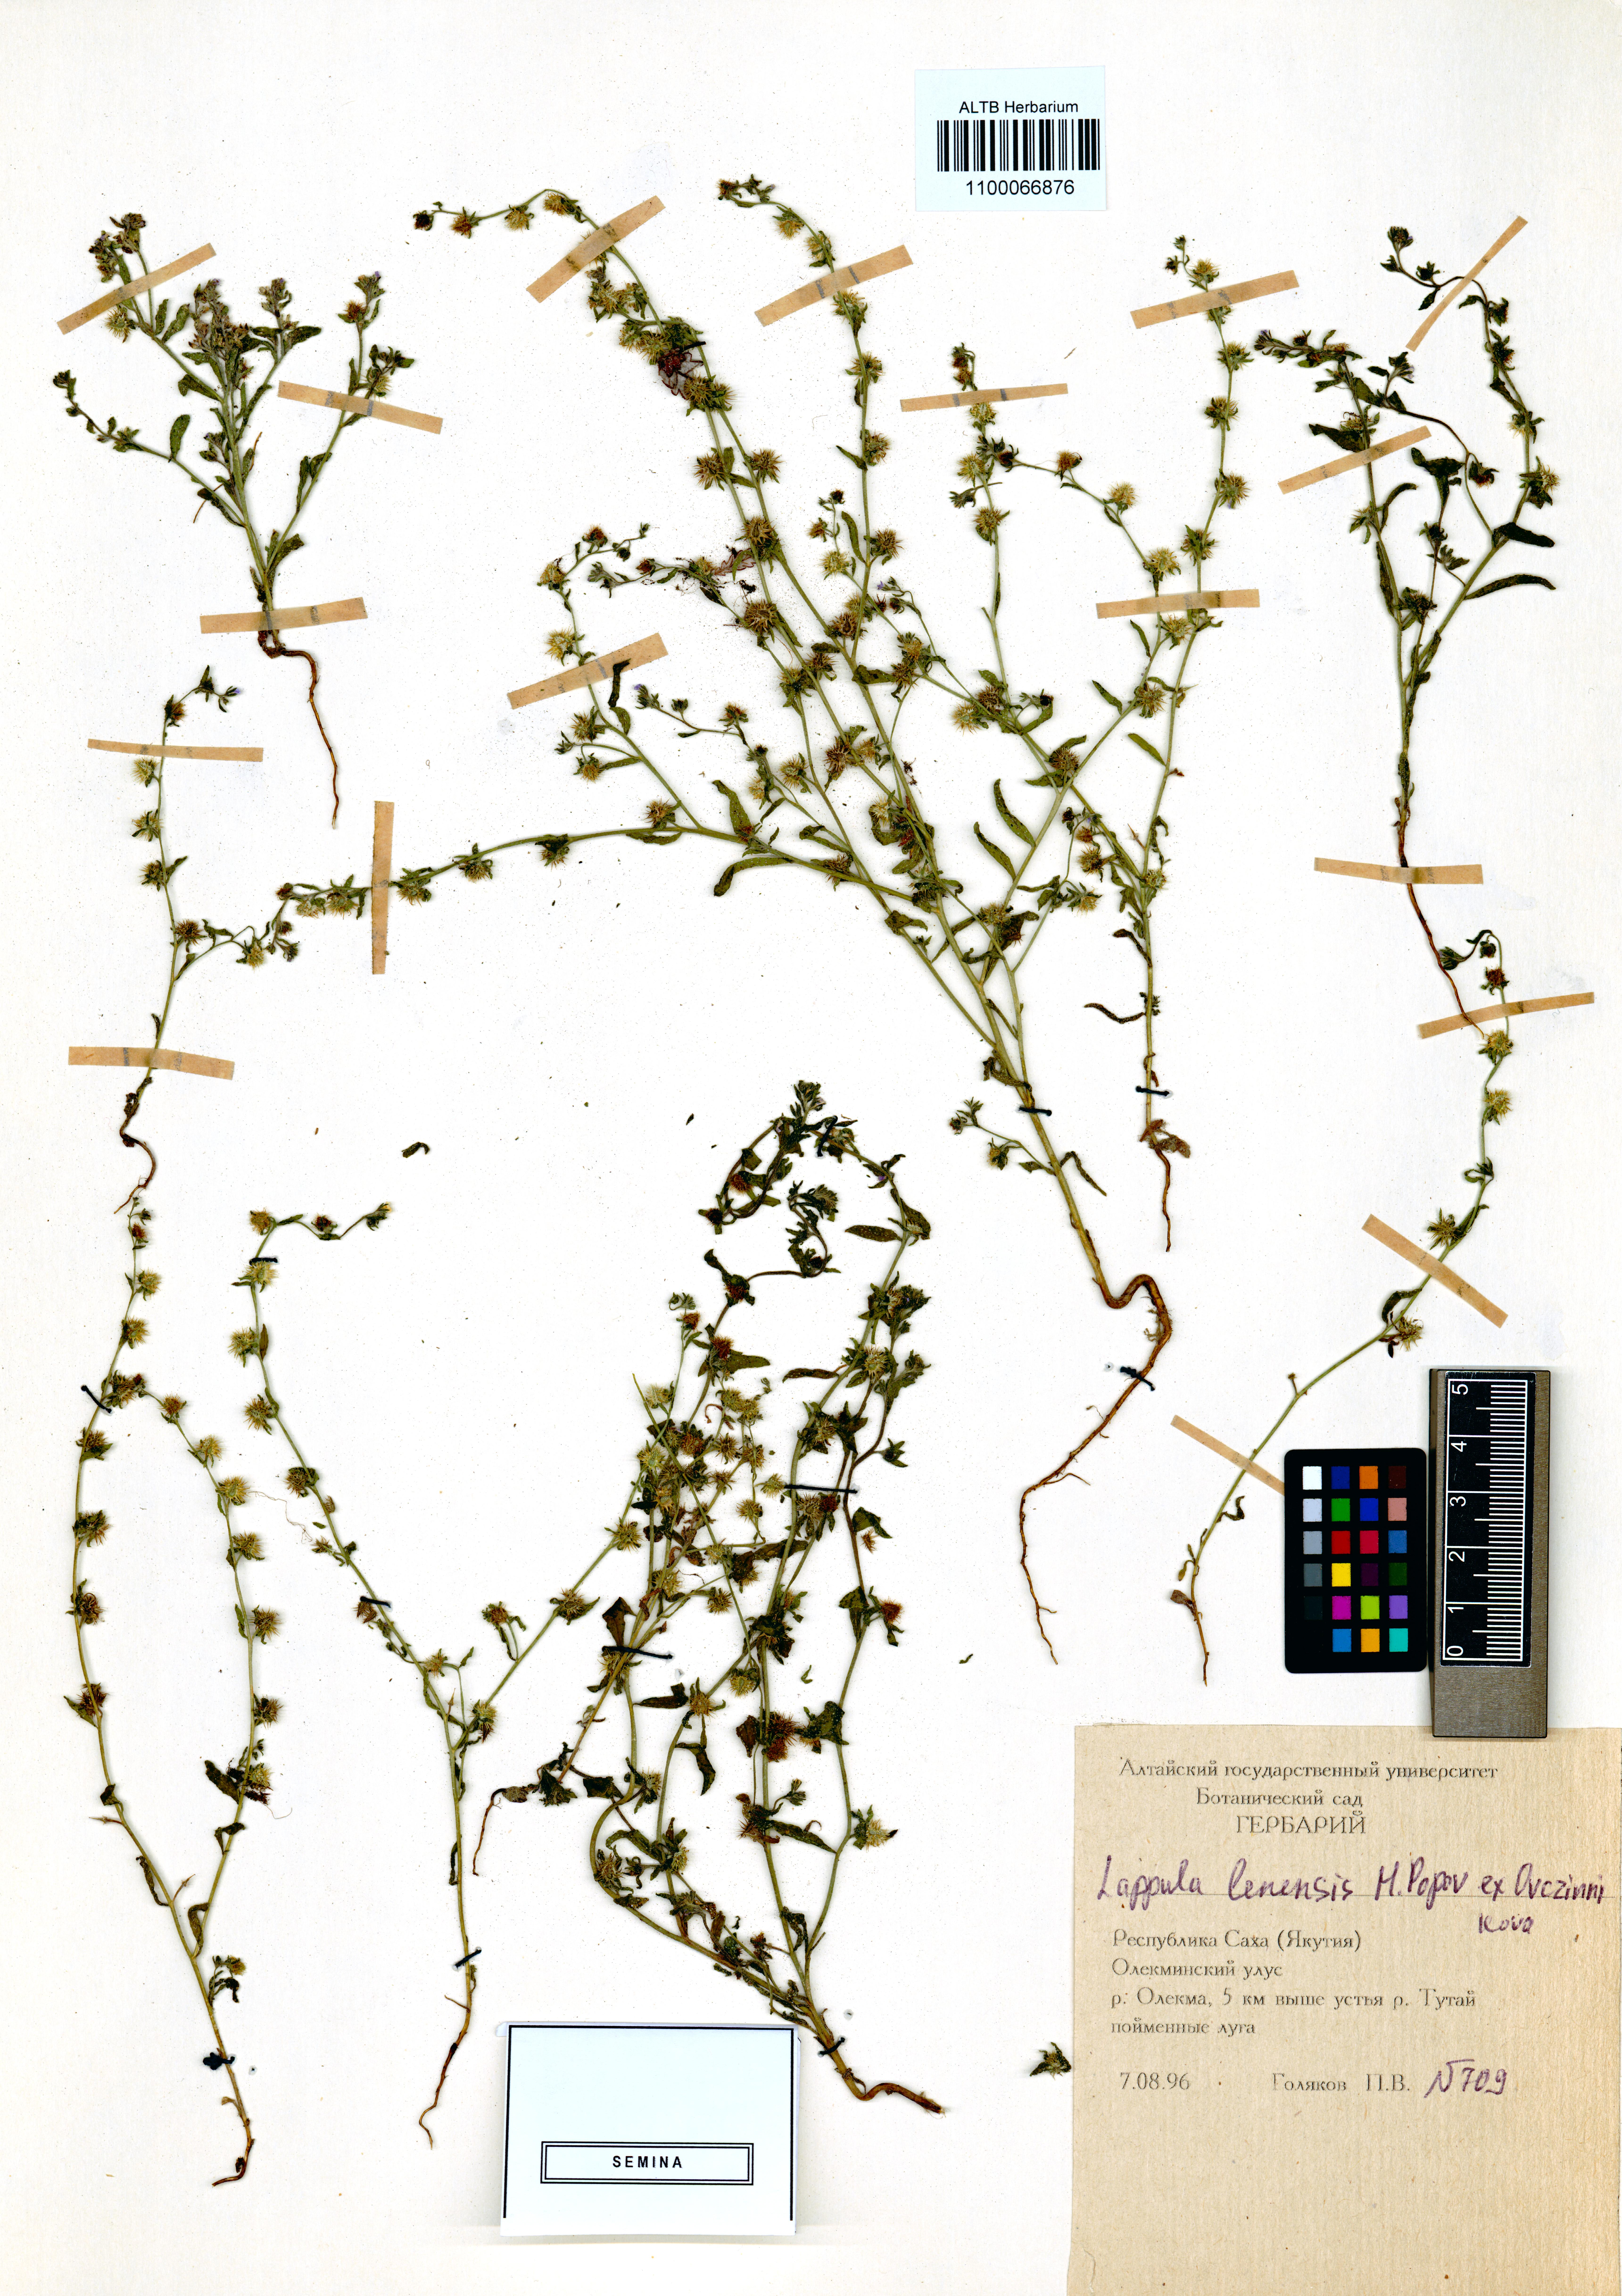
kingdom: Plantae
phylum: Tracheophyta
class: Magnoliopsida
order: Boraginales
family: Boraginaceae
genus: Lappula
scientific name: Lappula lenensis
